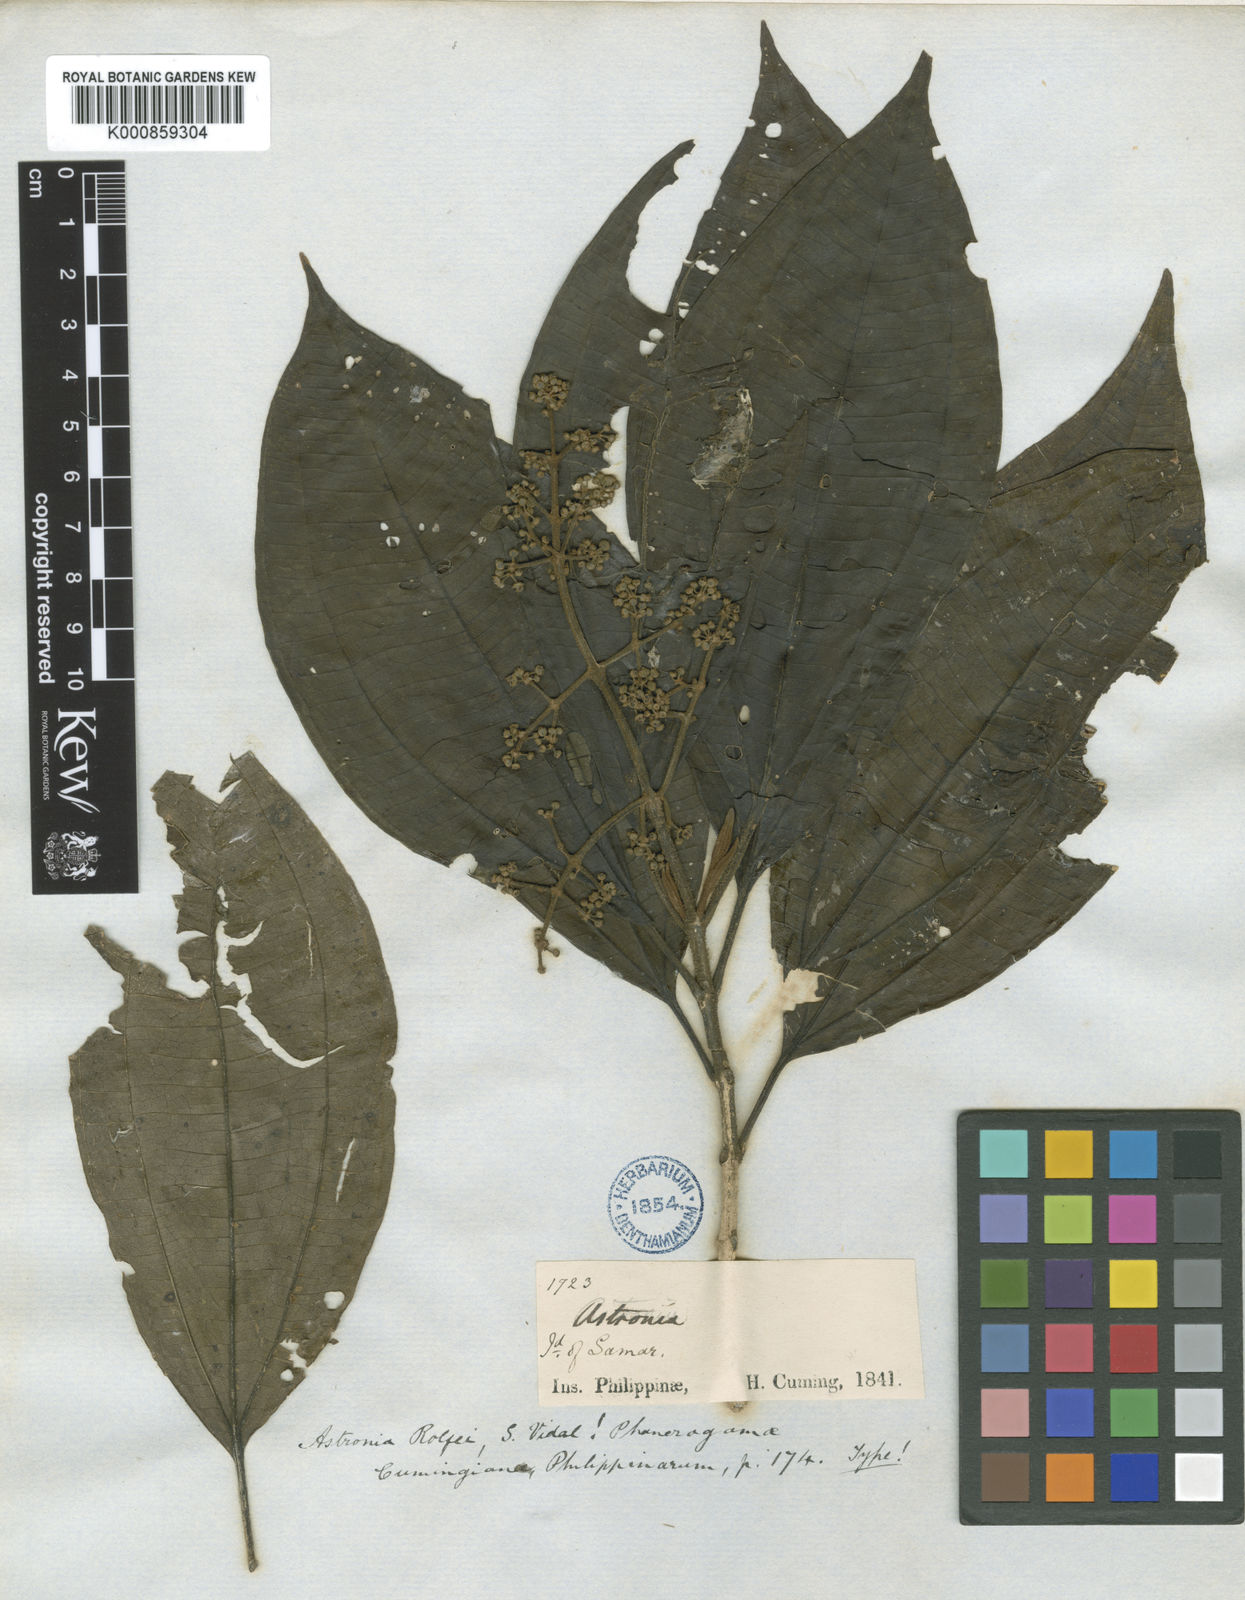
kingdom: Plantae
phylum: Tracheophyta
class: Magnoliopsida
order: Myrtales
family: Melastomataceae
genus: Astronia
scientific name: Astronia rolfei
